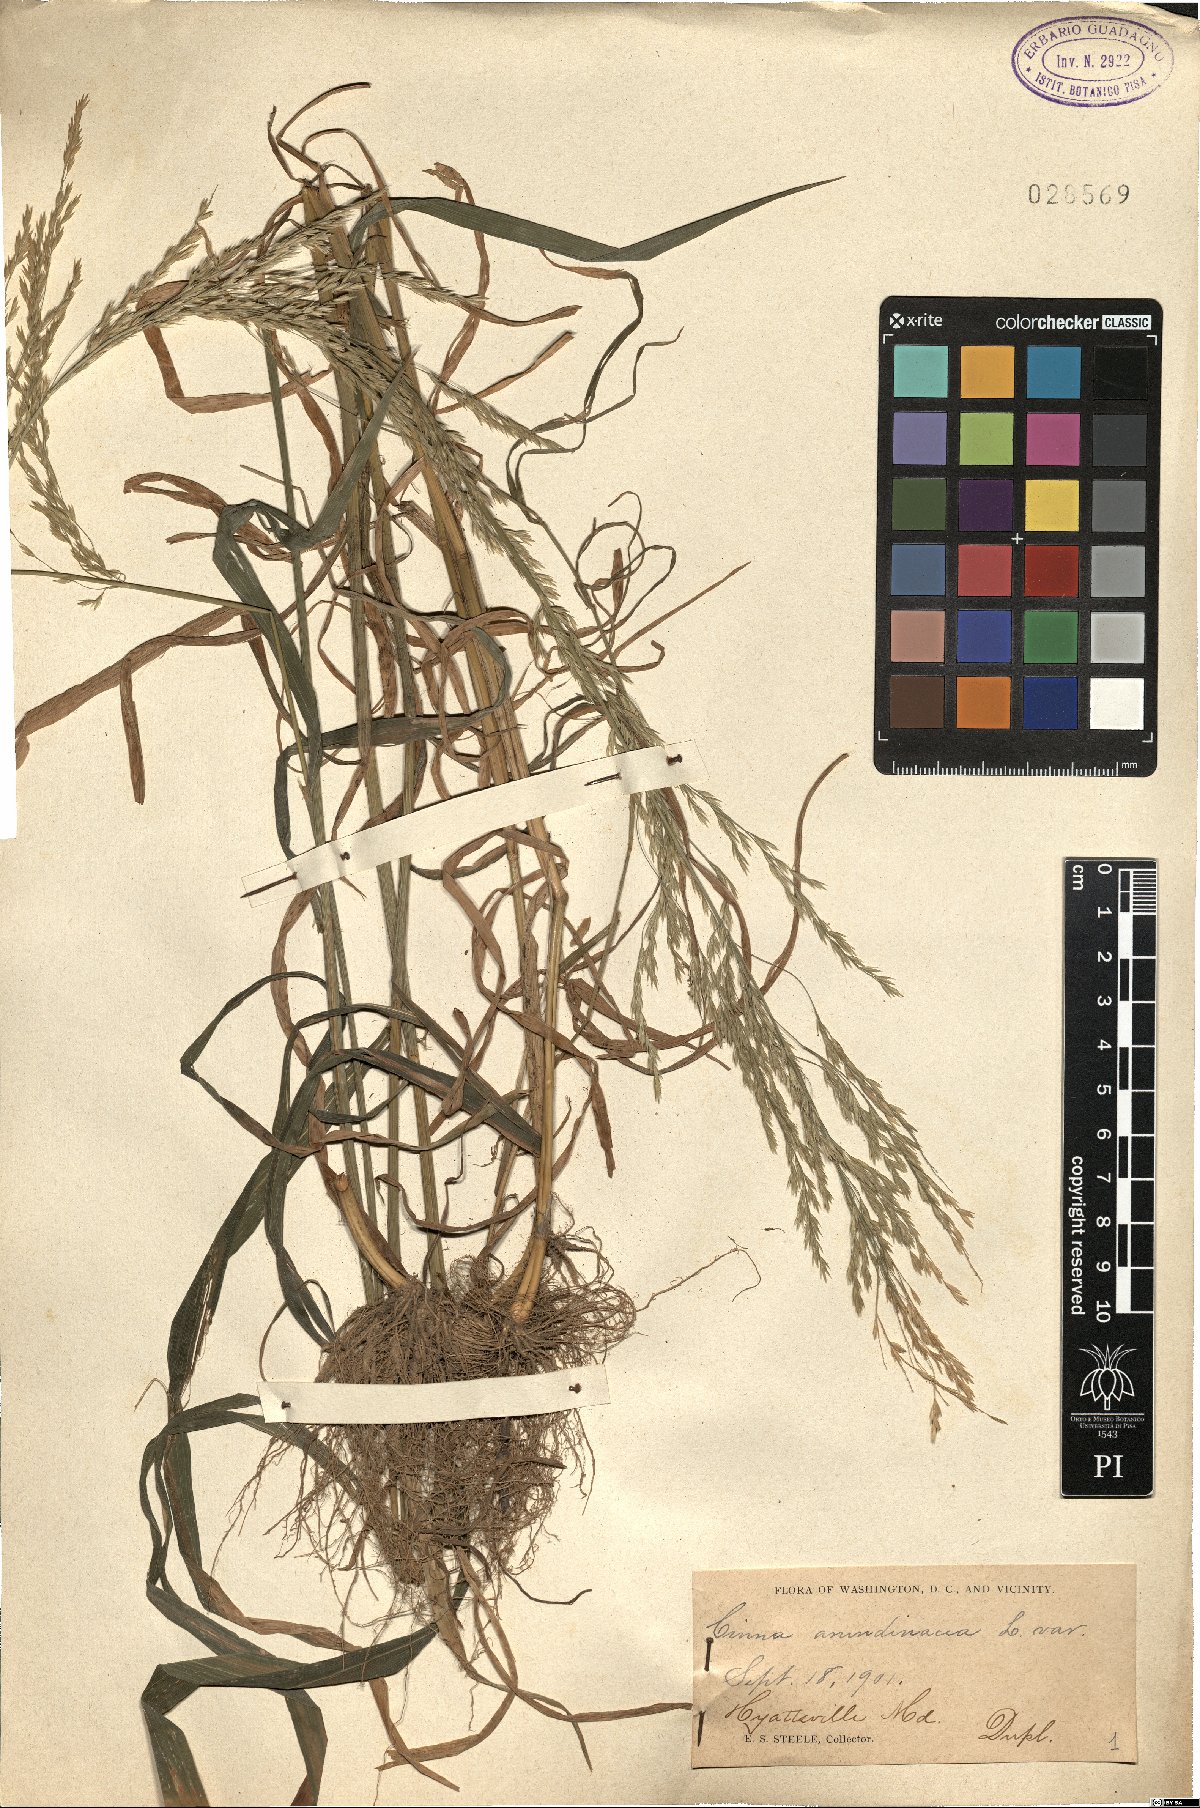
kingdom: Plantae
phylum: Tracheophyta
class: Liliopsida
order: Poales
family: Poaceae
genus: Cinna
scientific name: Cinna arundinacea
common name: Stout woodreed
